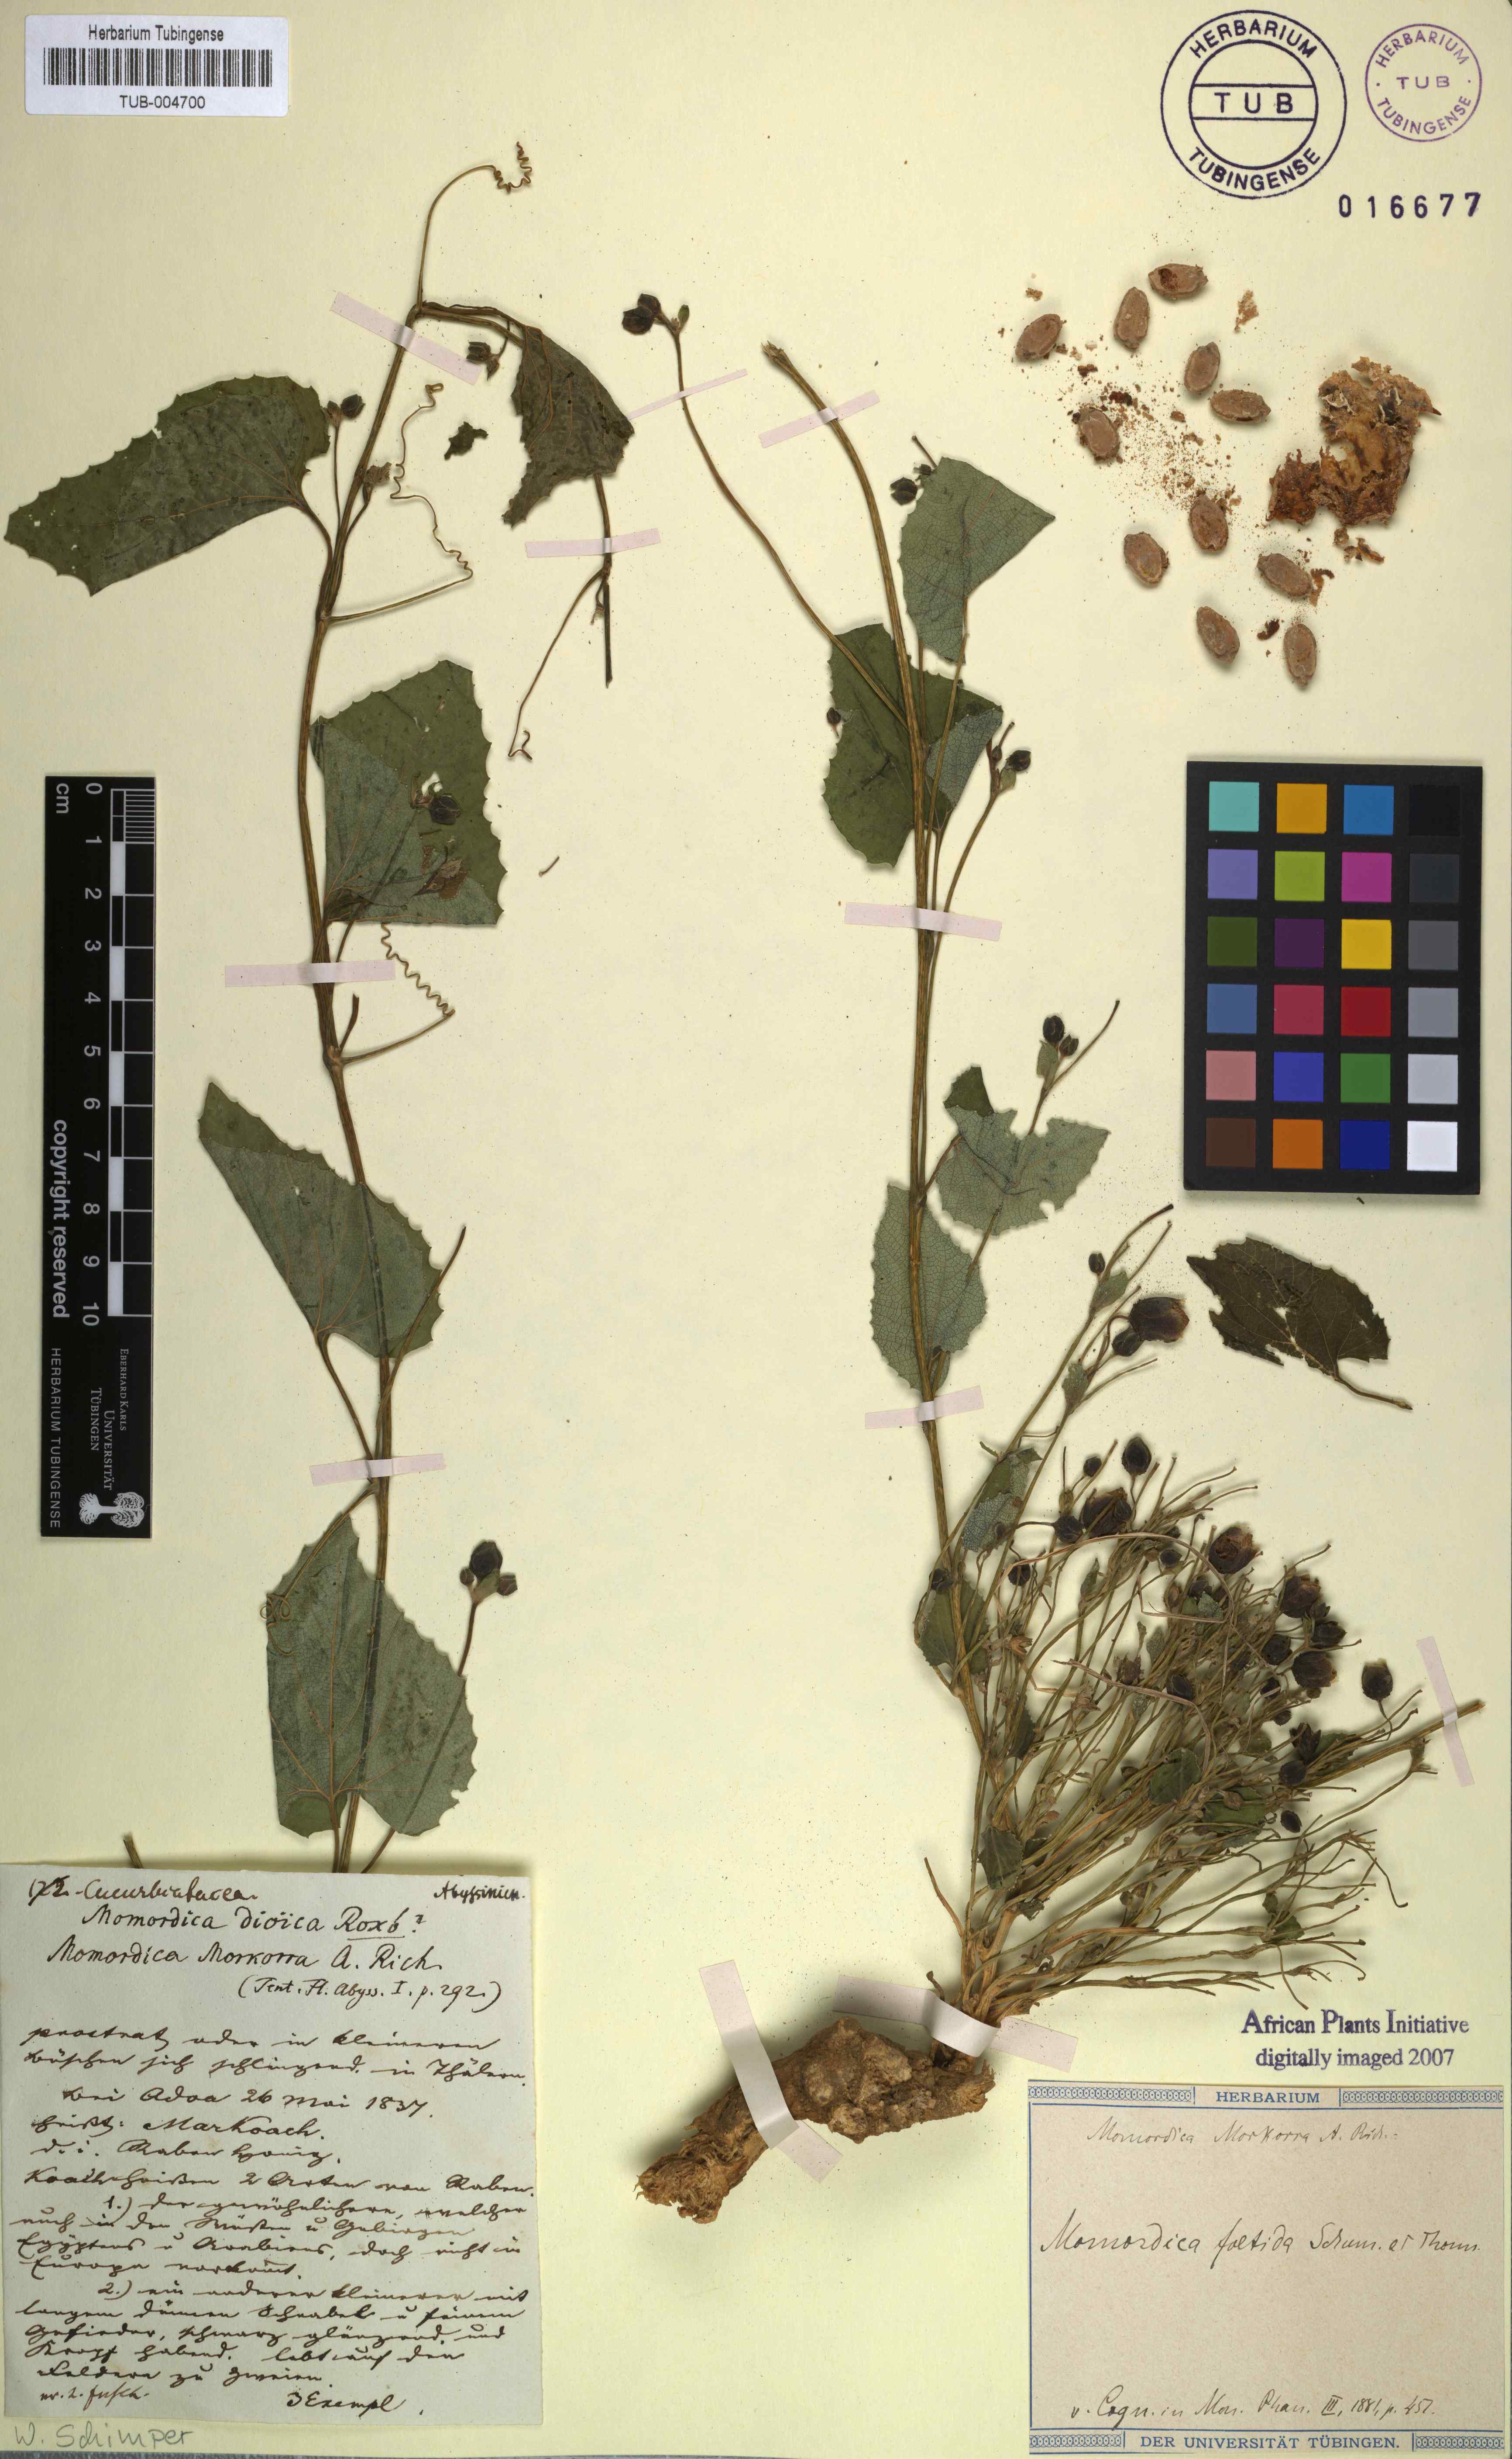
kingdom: Plantae
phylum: Tracheophyta
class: Magnoliopsida
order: Cucurbitales
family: Cucurbitaceae
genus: Momordica
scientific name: Momordica foetida
